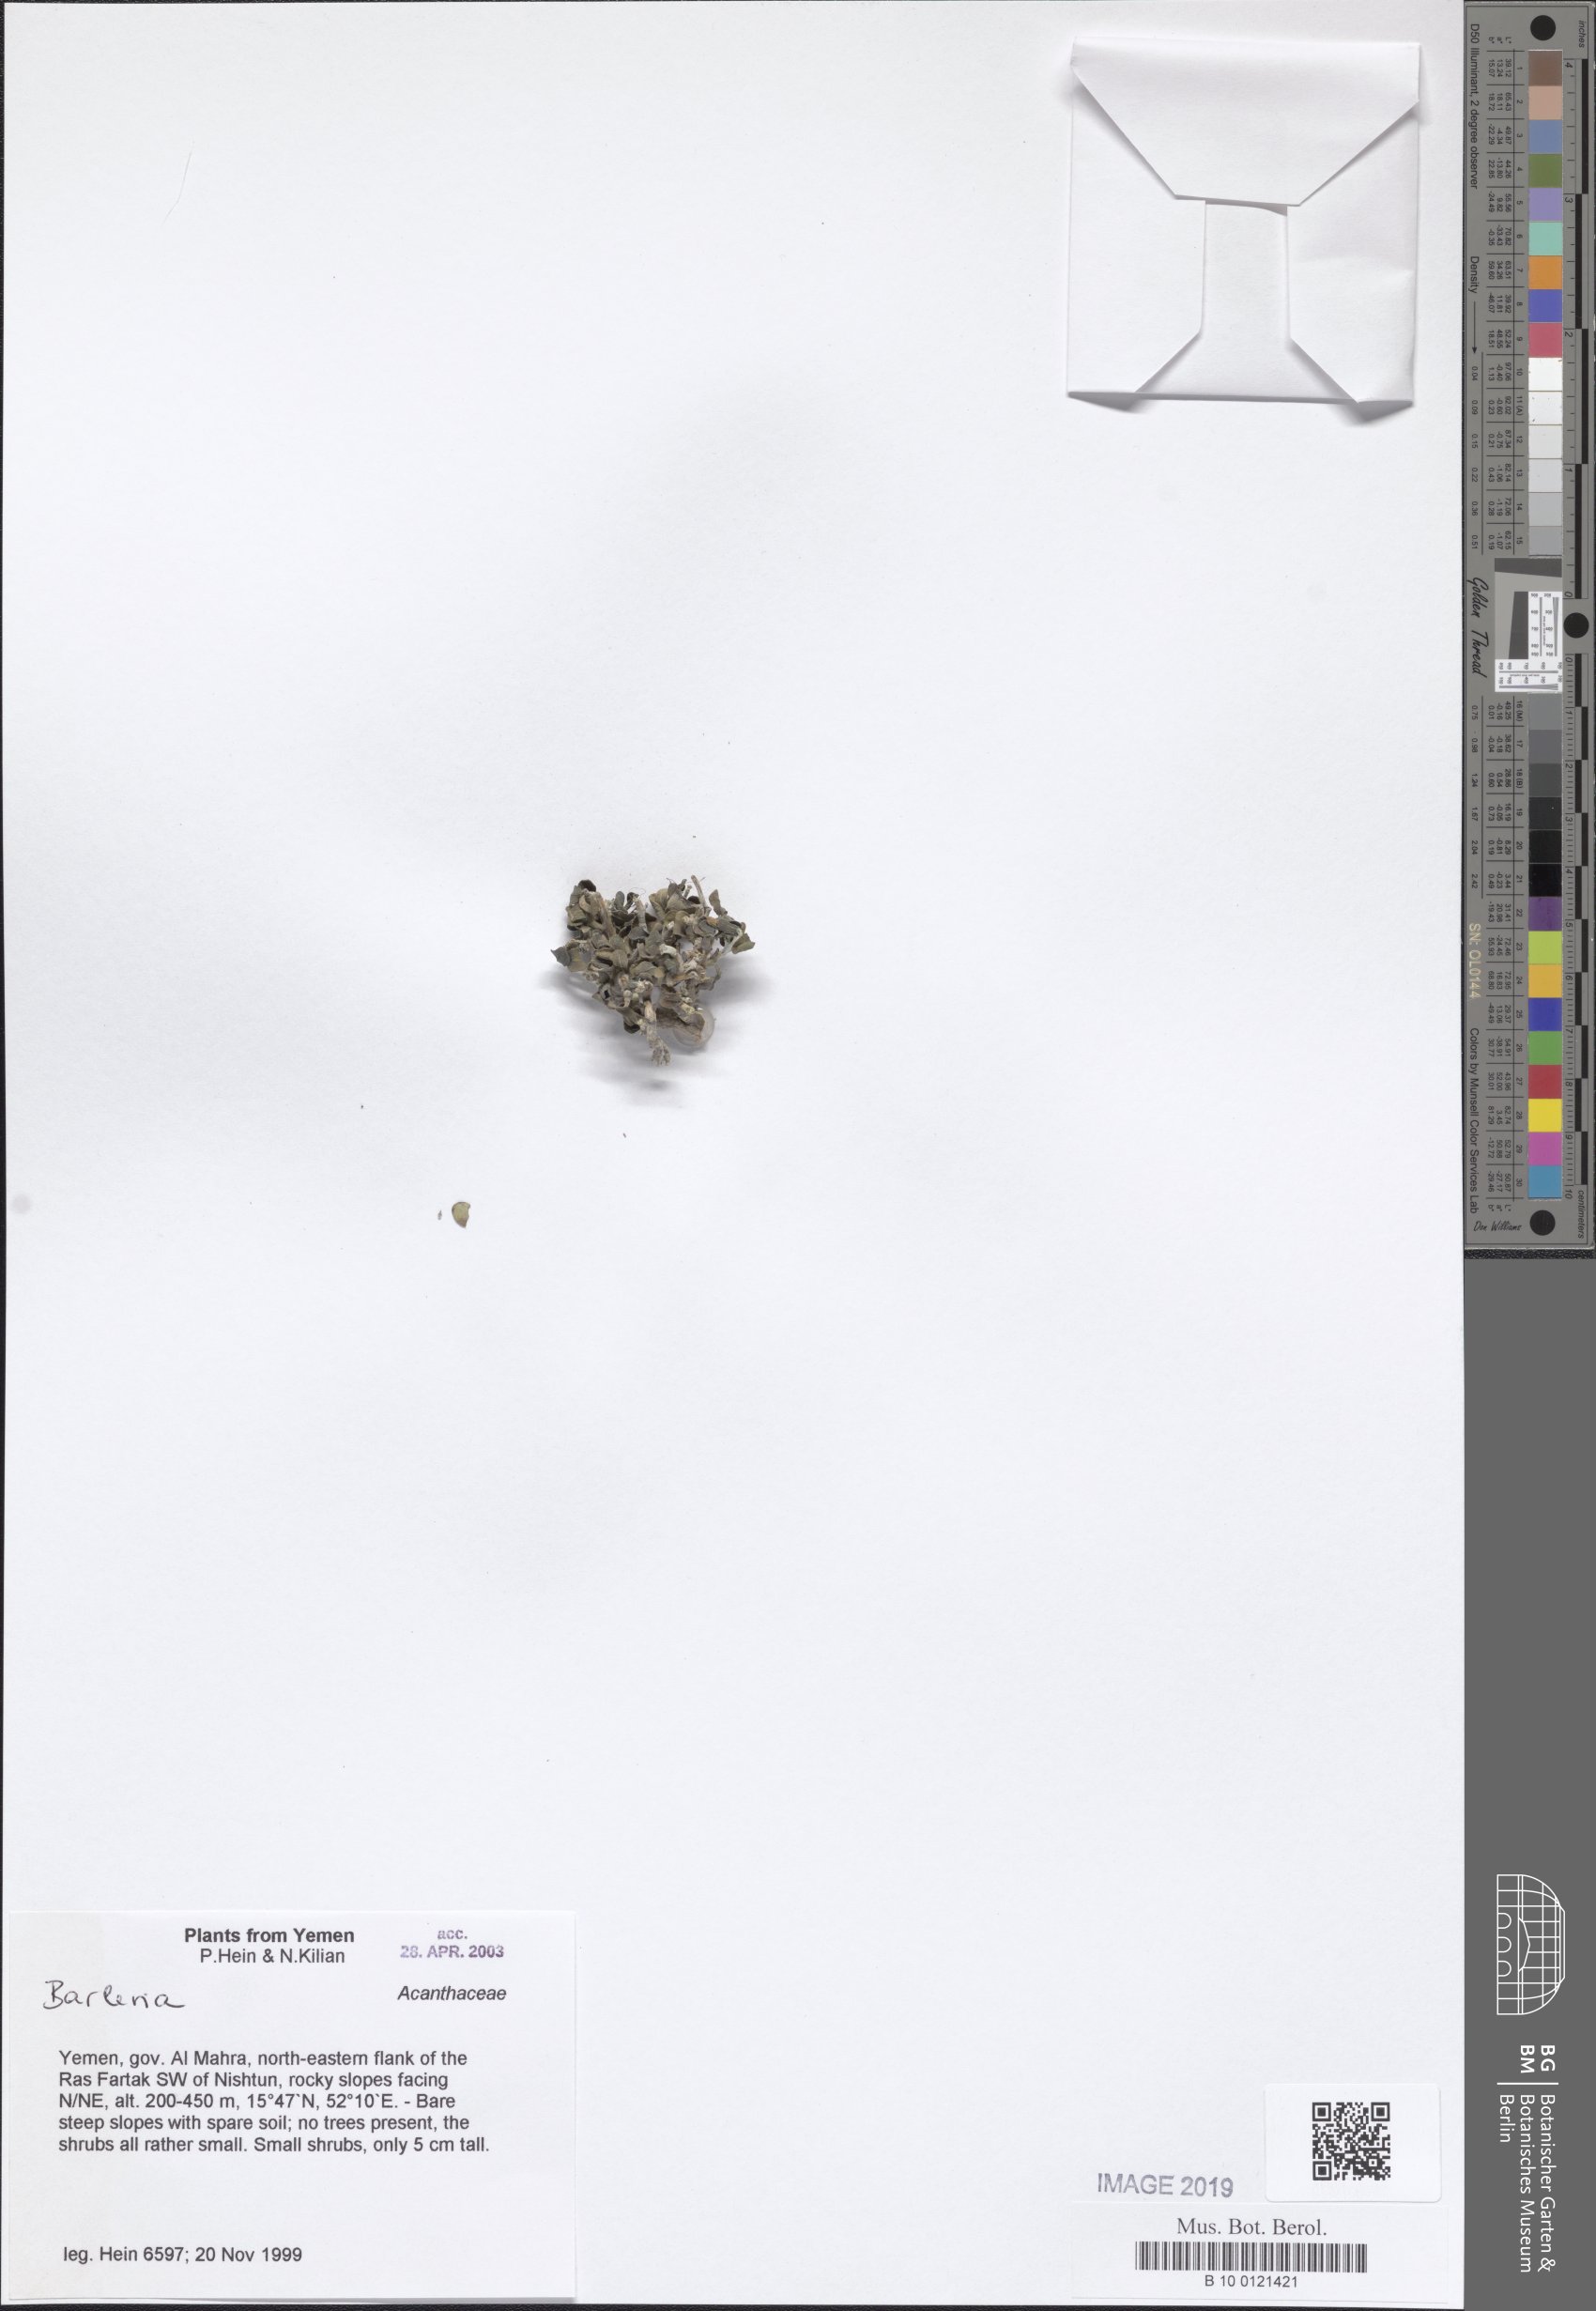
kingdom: Plantae
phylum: Tracheophyta
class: Magnoliopsida
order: Lamiales
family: Acanthaceae
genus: Barleria
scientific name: Barleria
